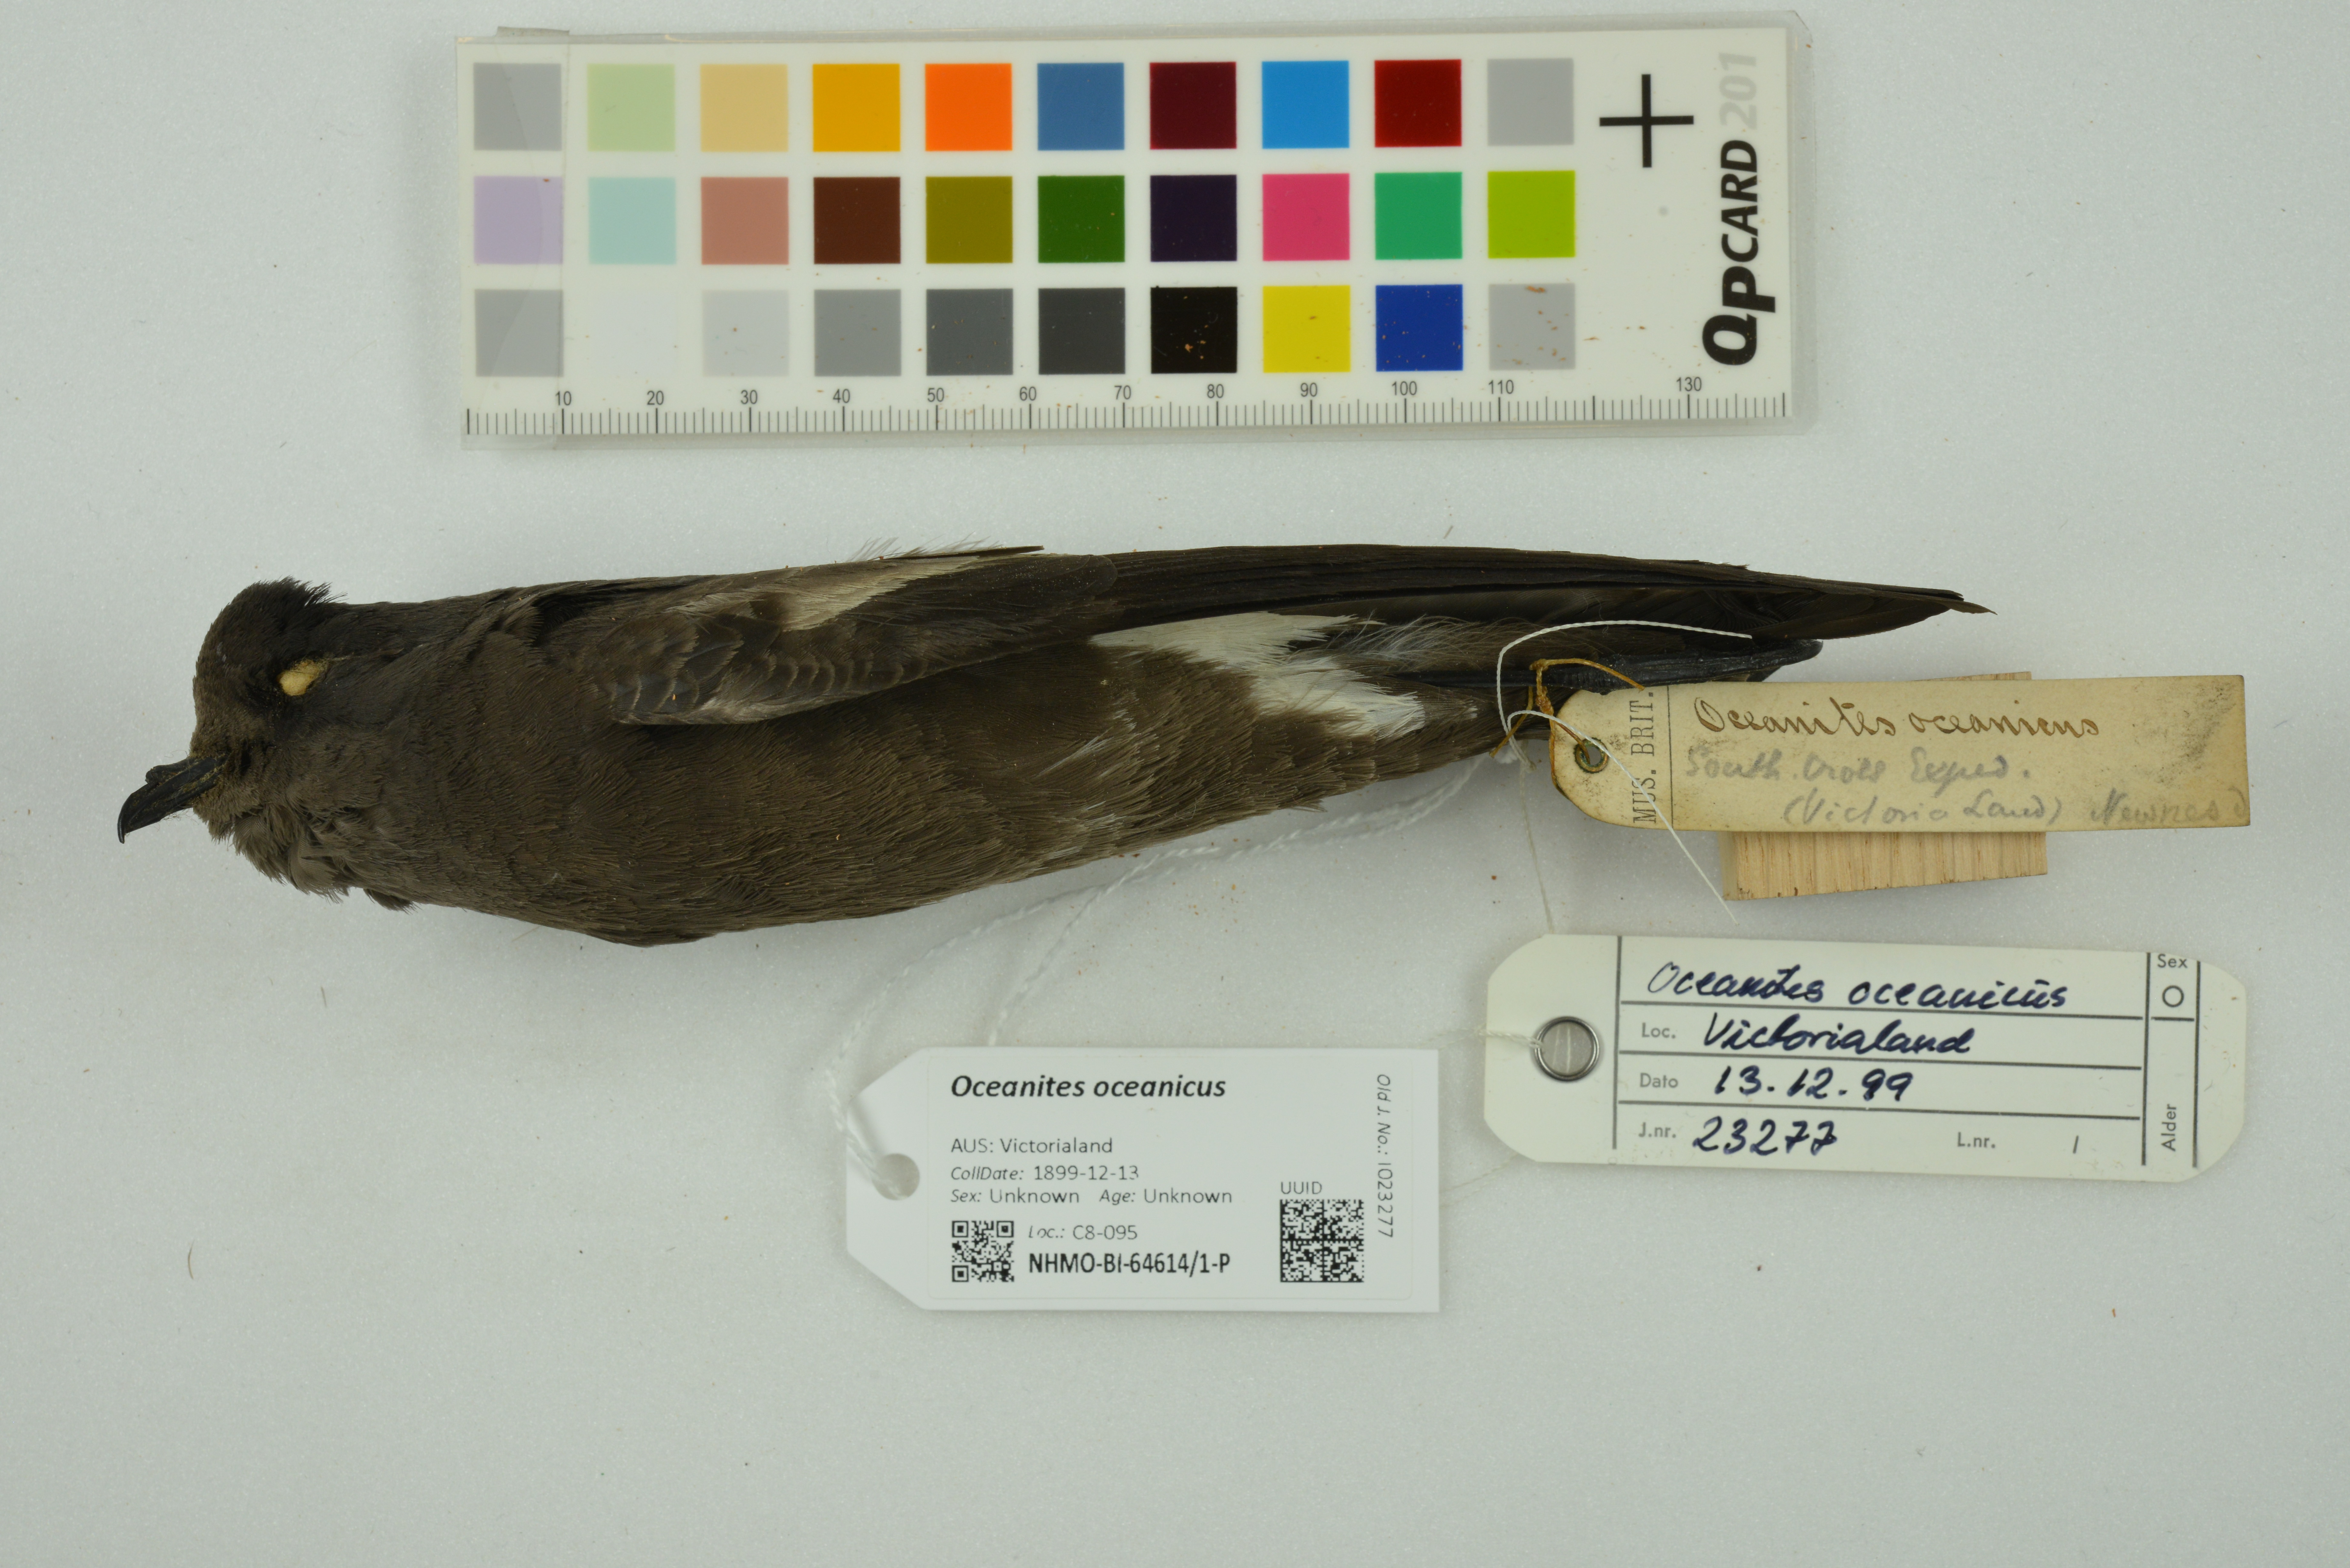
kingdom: Animalia
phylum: Chordata
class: Aves
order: Procellariiformes
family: Hydrobatidae
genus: Oceanites
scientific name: Oceanites oceanicus
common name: Wilson's storm petrel
